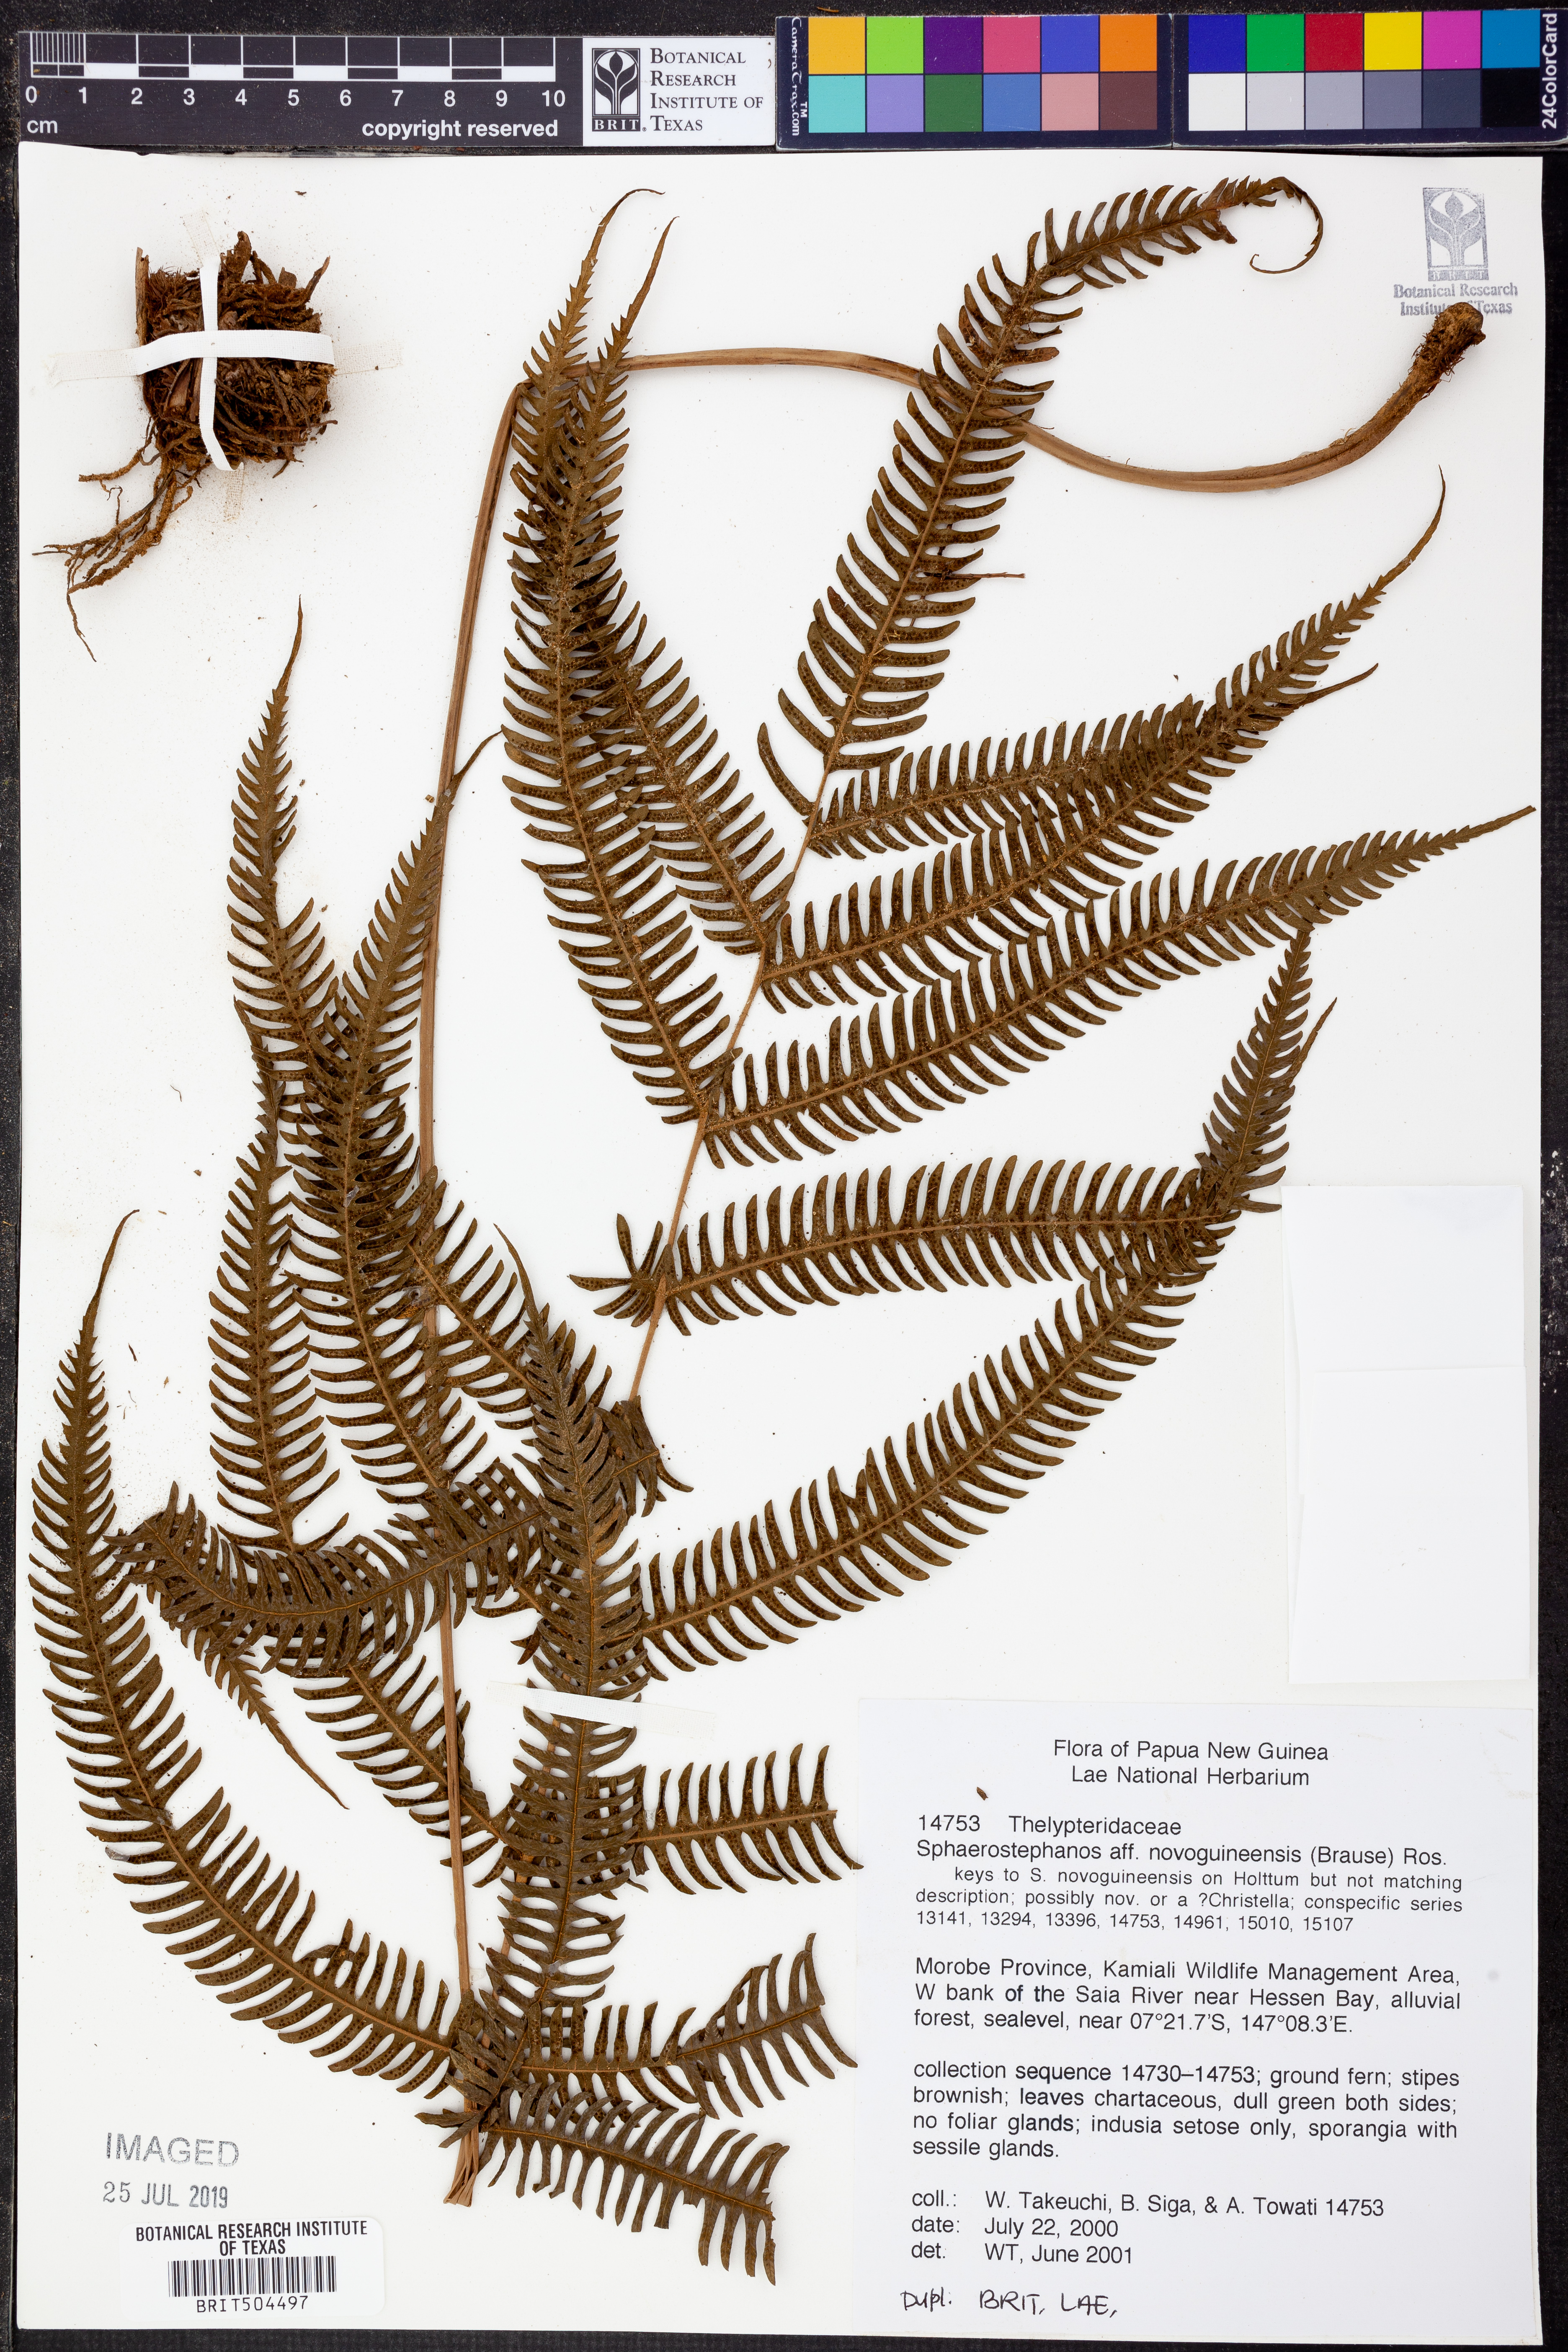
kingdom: Plantae
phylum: Tracheophyta
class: Polypodiopsida
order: Polypodiales
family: Thelypteridaceae
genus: Sphaerostephanos
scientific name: Sphaerostephanos novoguineensis
